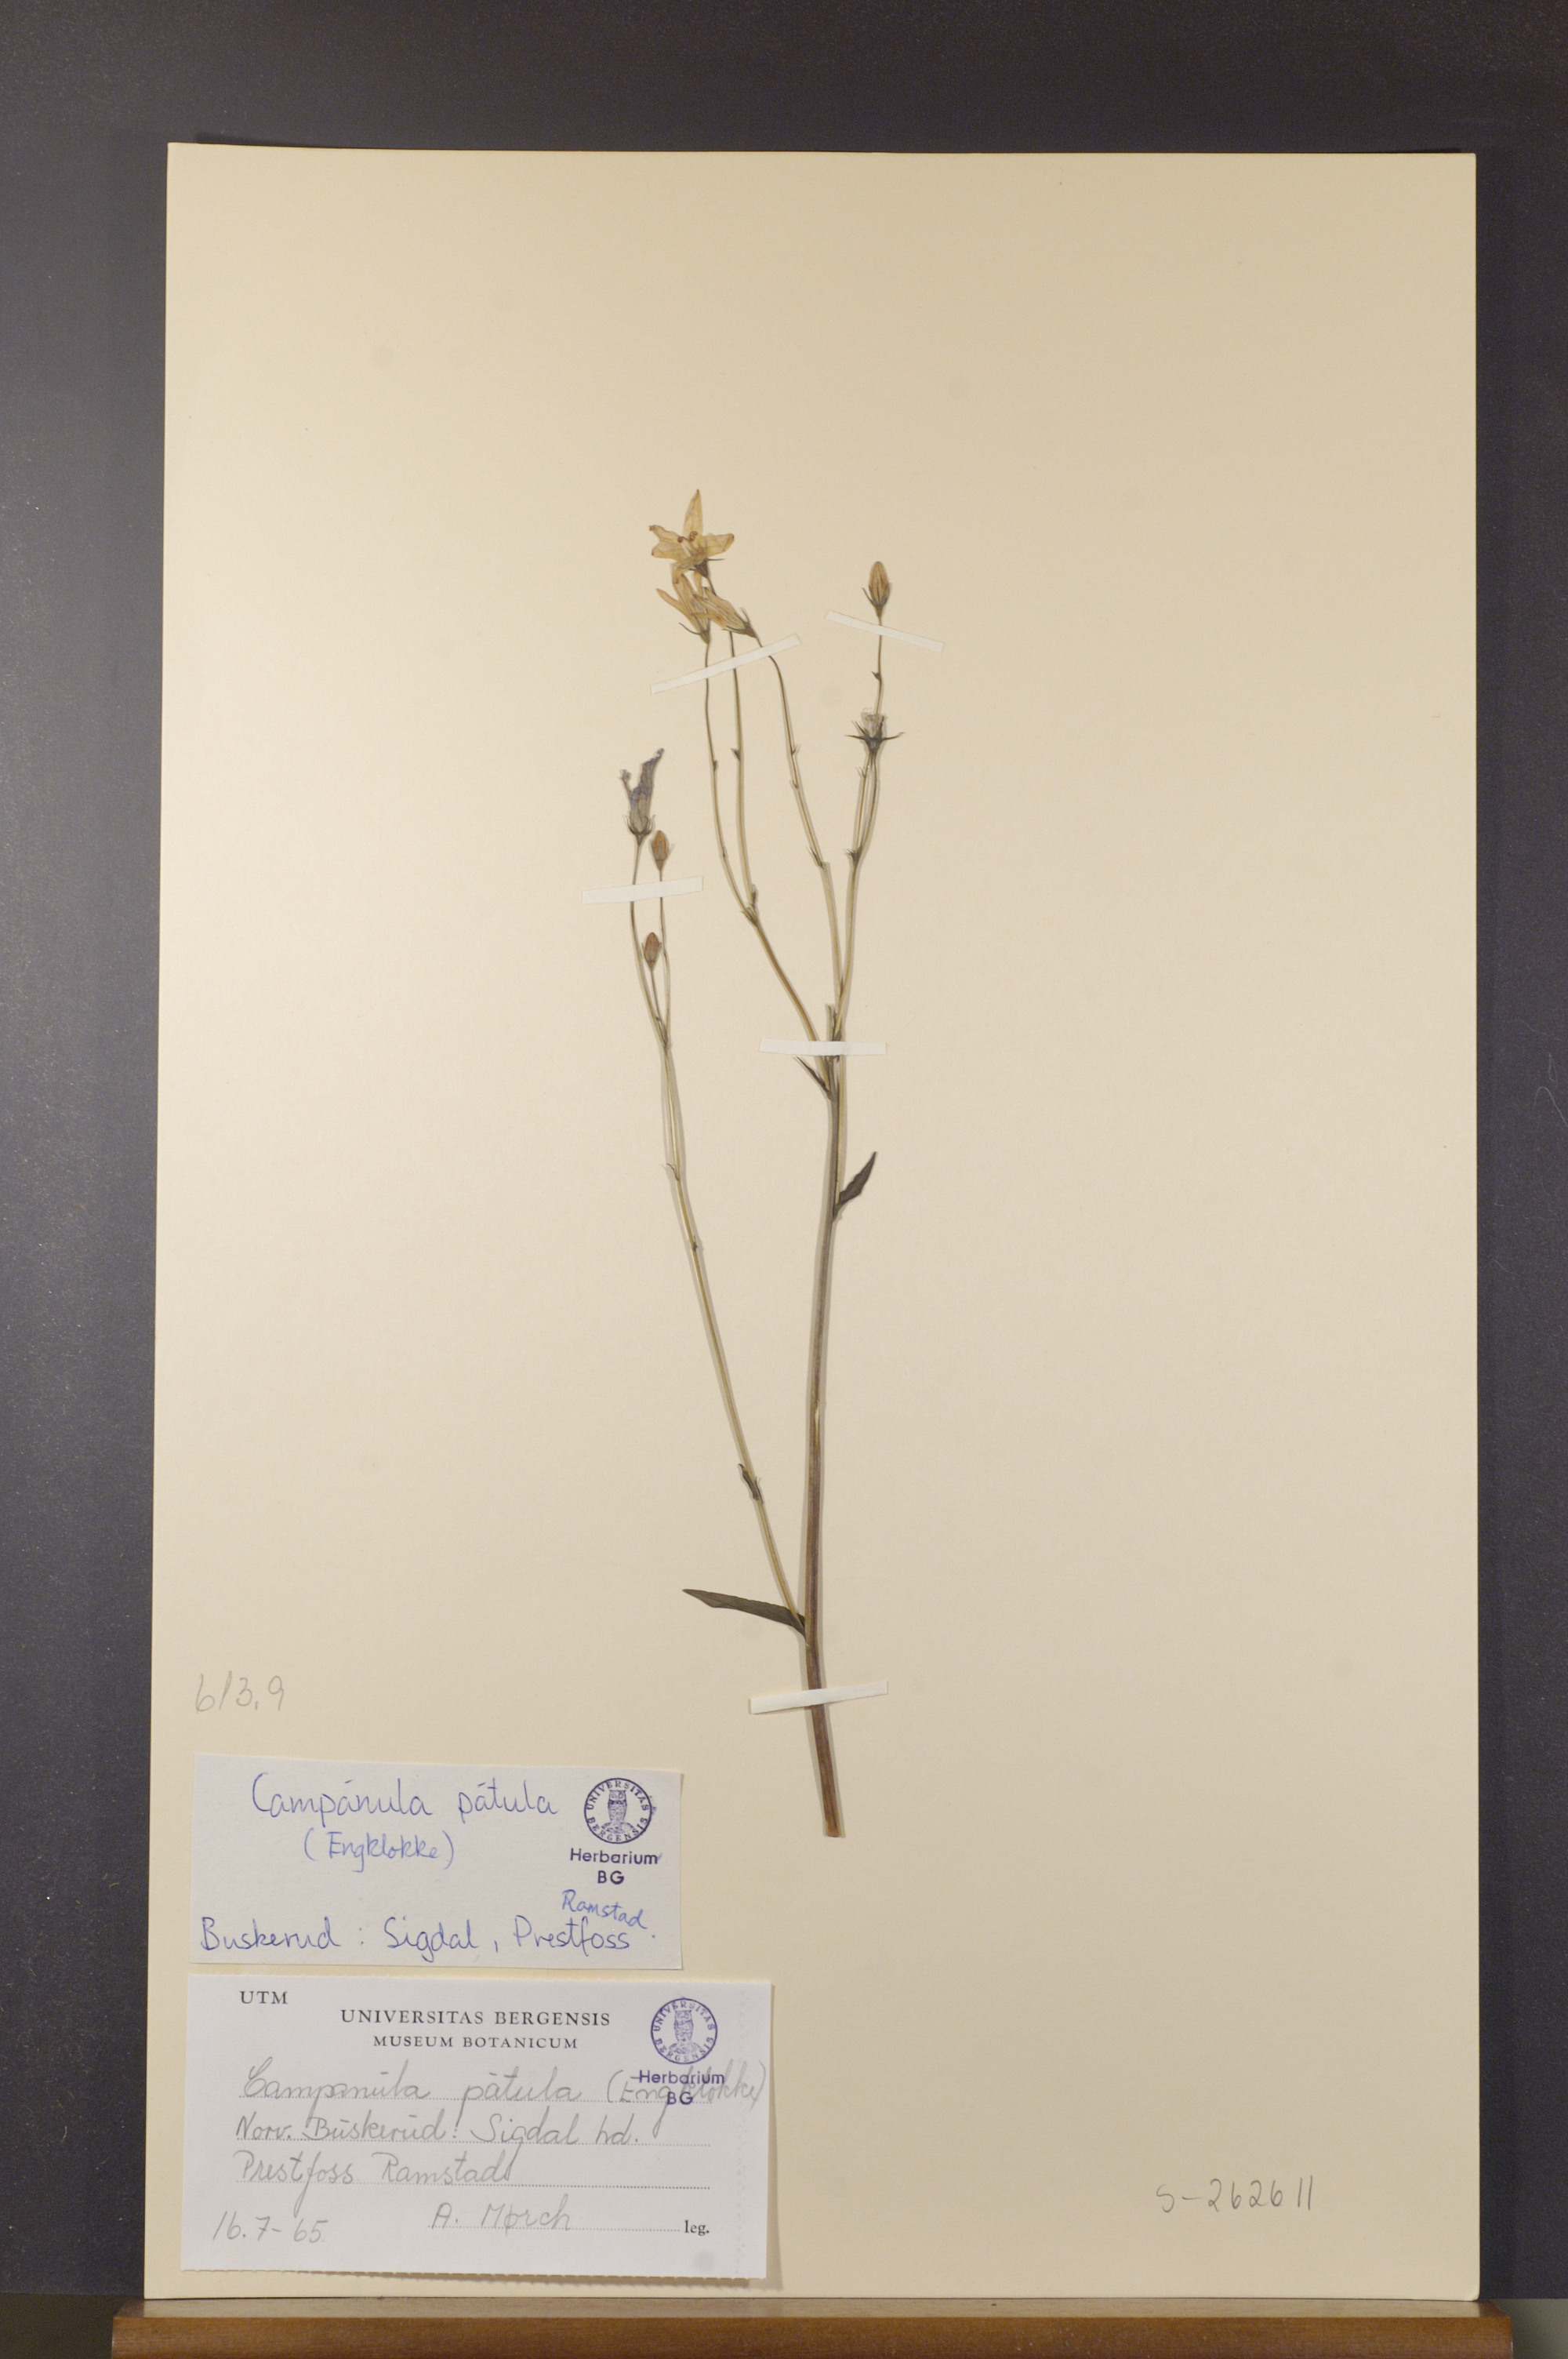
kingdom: Plantae
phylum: Tracheophyta
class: Magnoliopsida
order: Asterales
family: Campanulaceae
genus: Campanula
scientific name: Campanula patula
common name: Spreading bellflower
